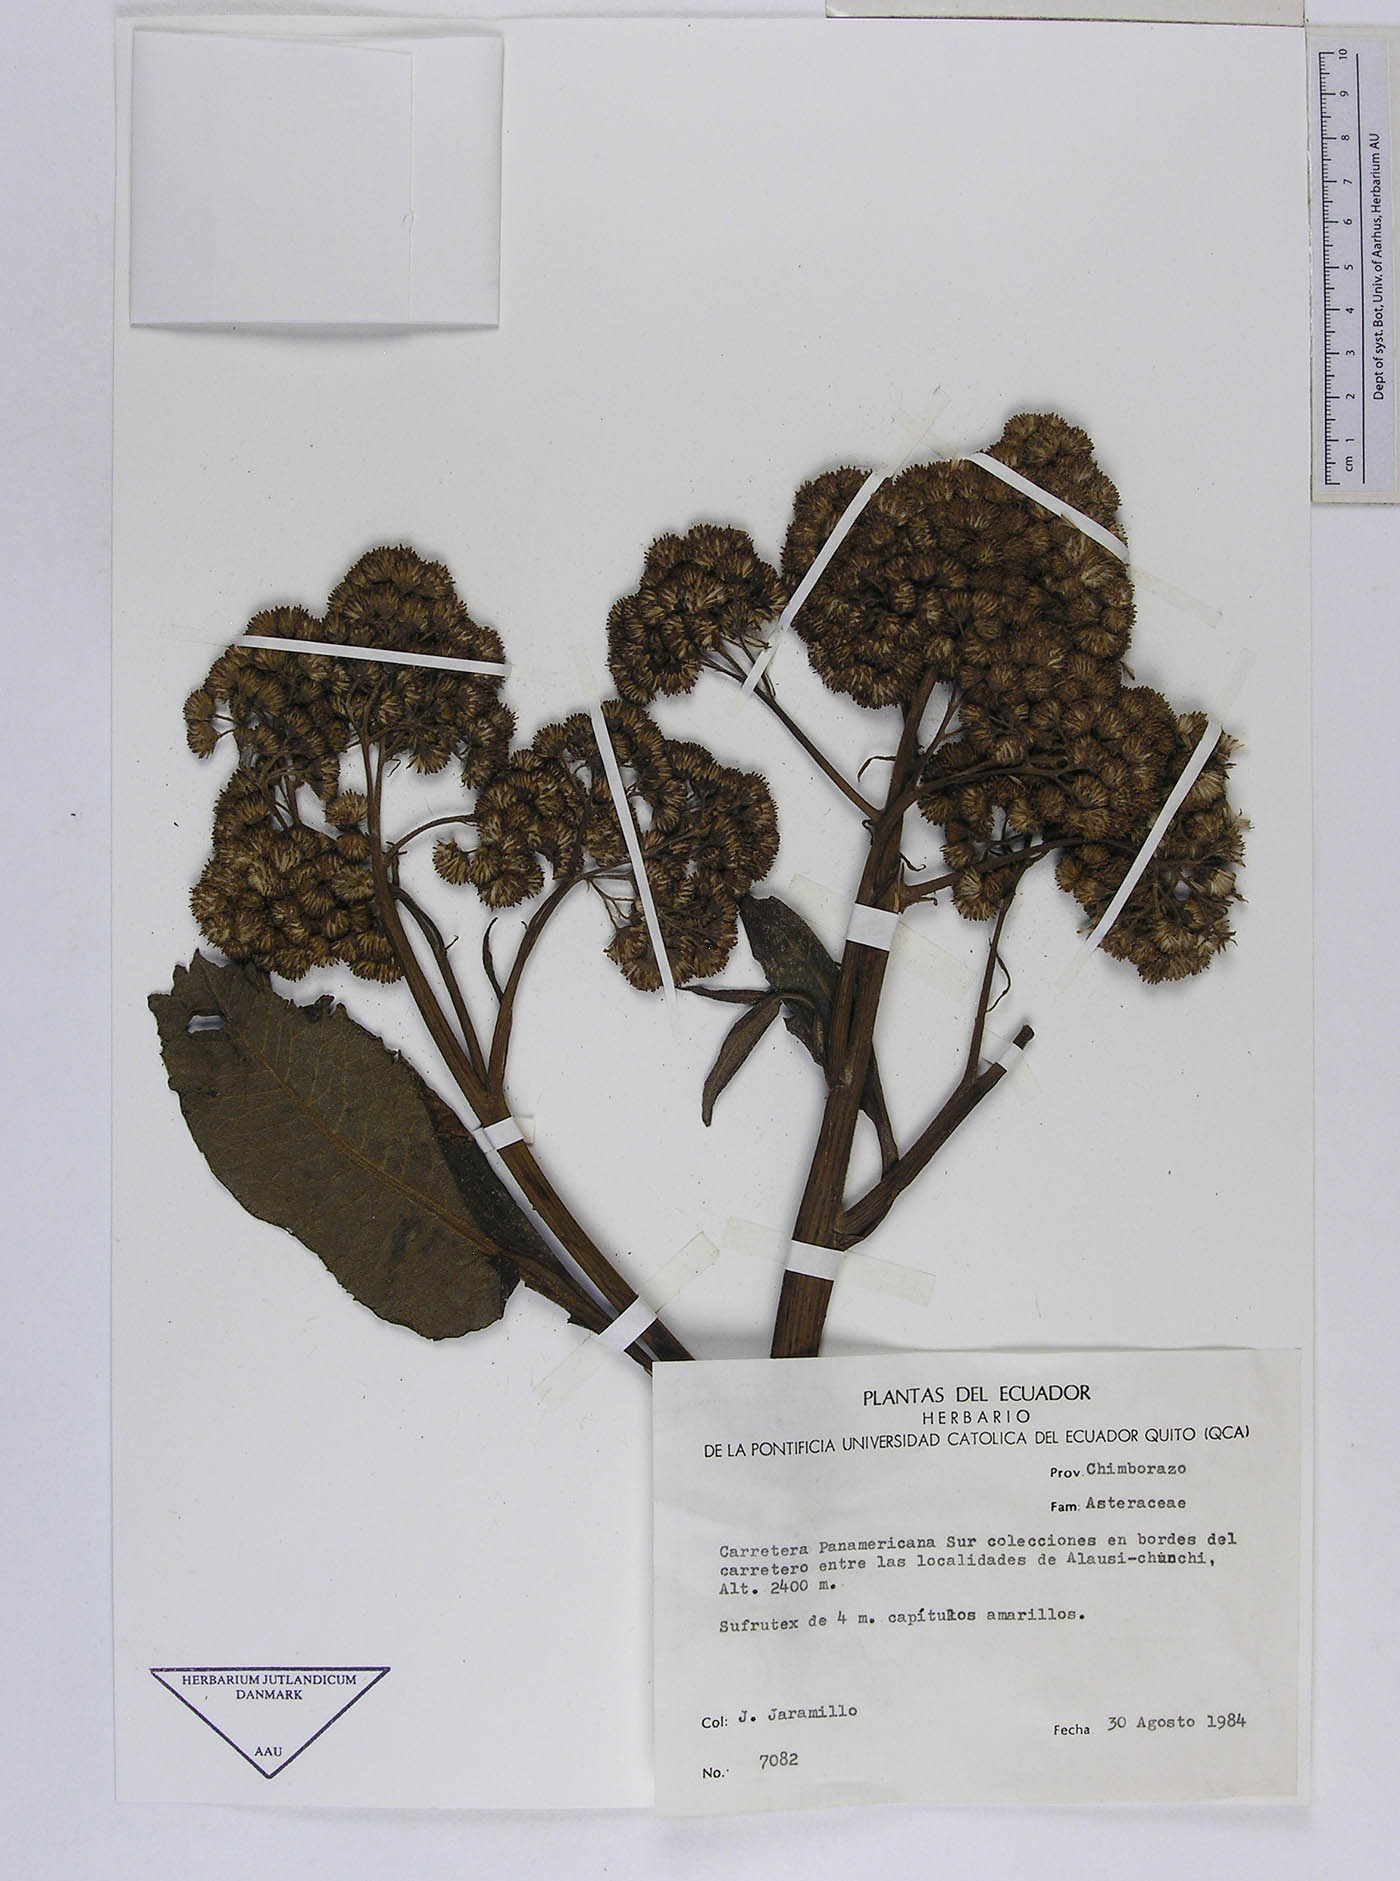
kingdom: Plantae
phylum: Tracheophyta
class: Magnoliopsida
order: Asterales
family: Asteraceae
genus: Dendrophorbium
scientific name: Dendrophorbium tipocochense
